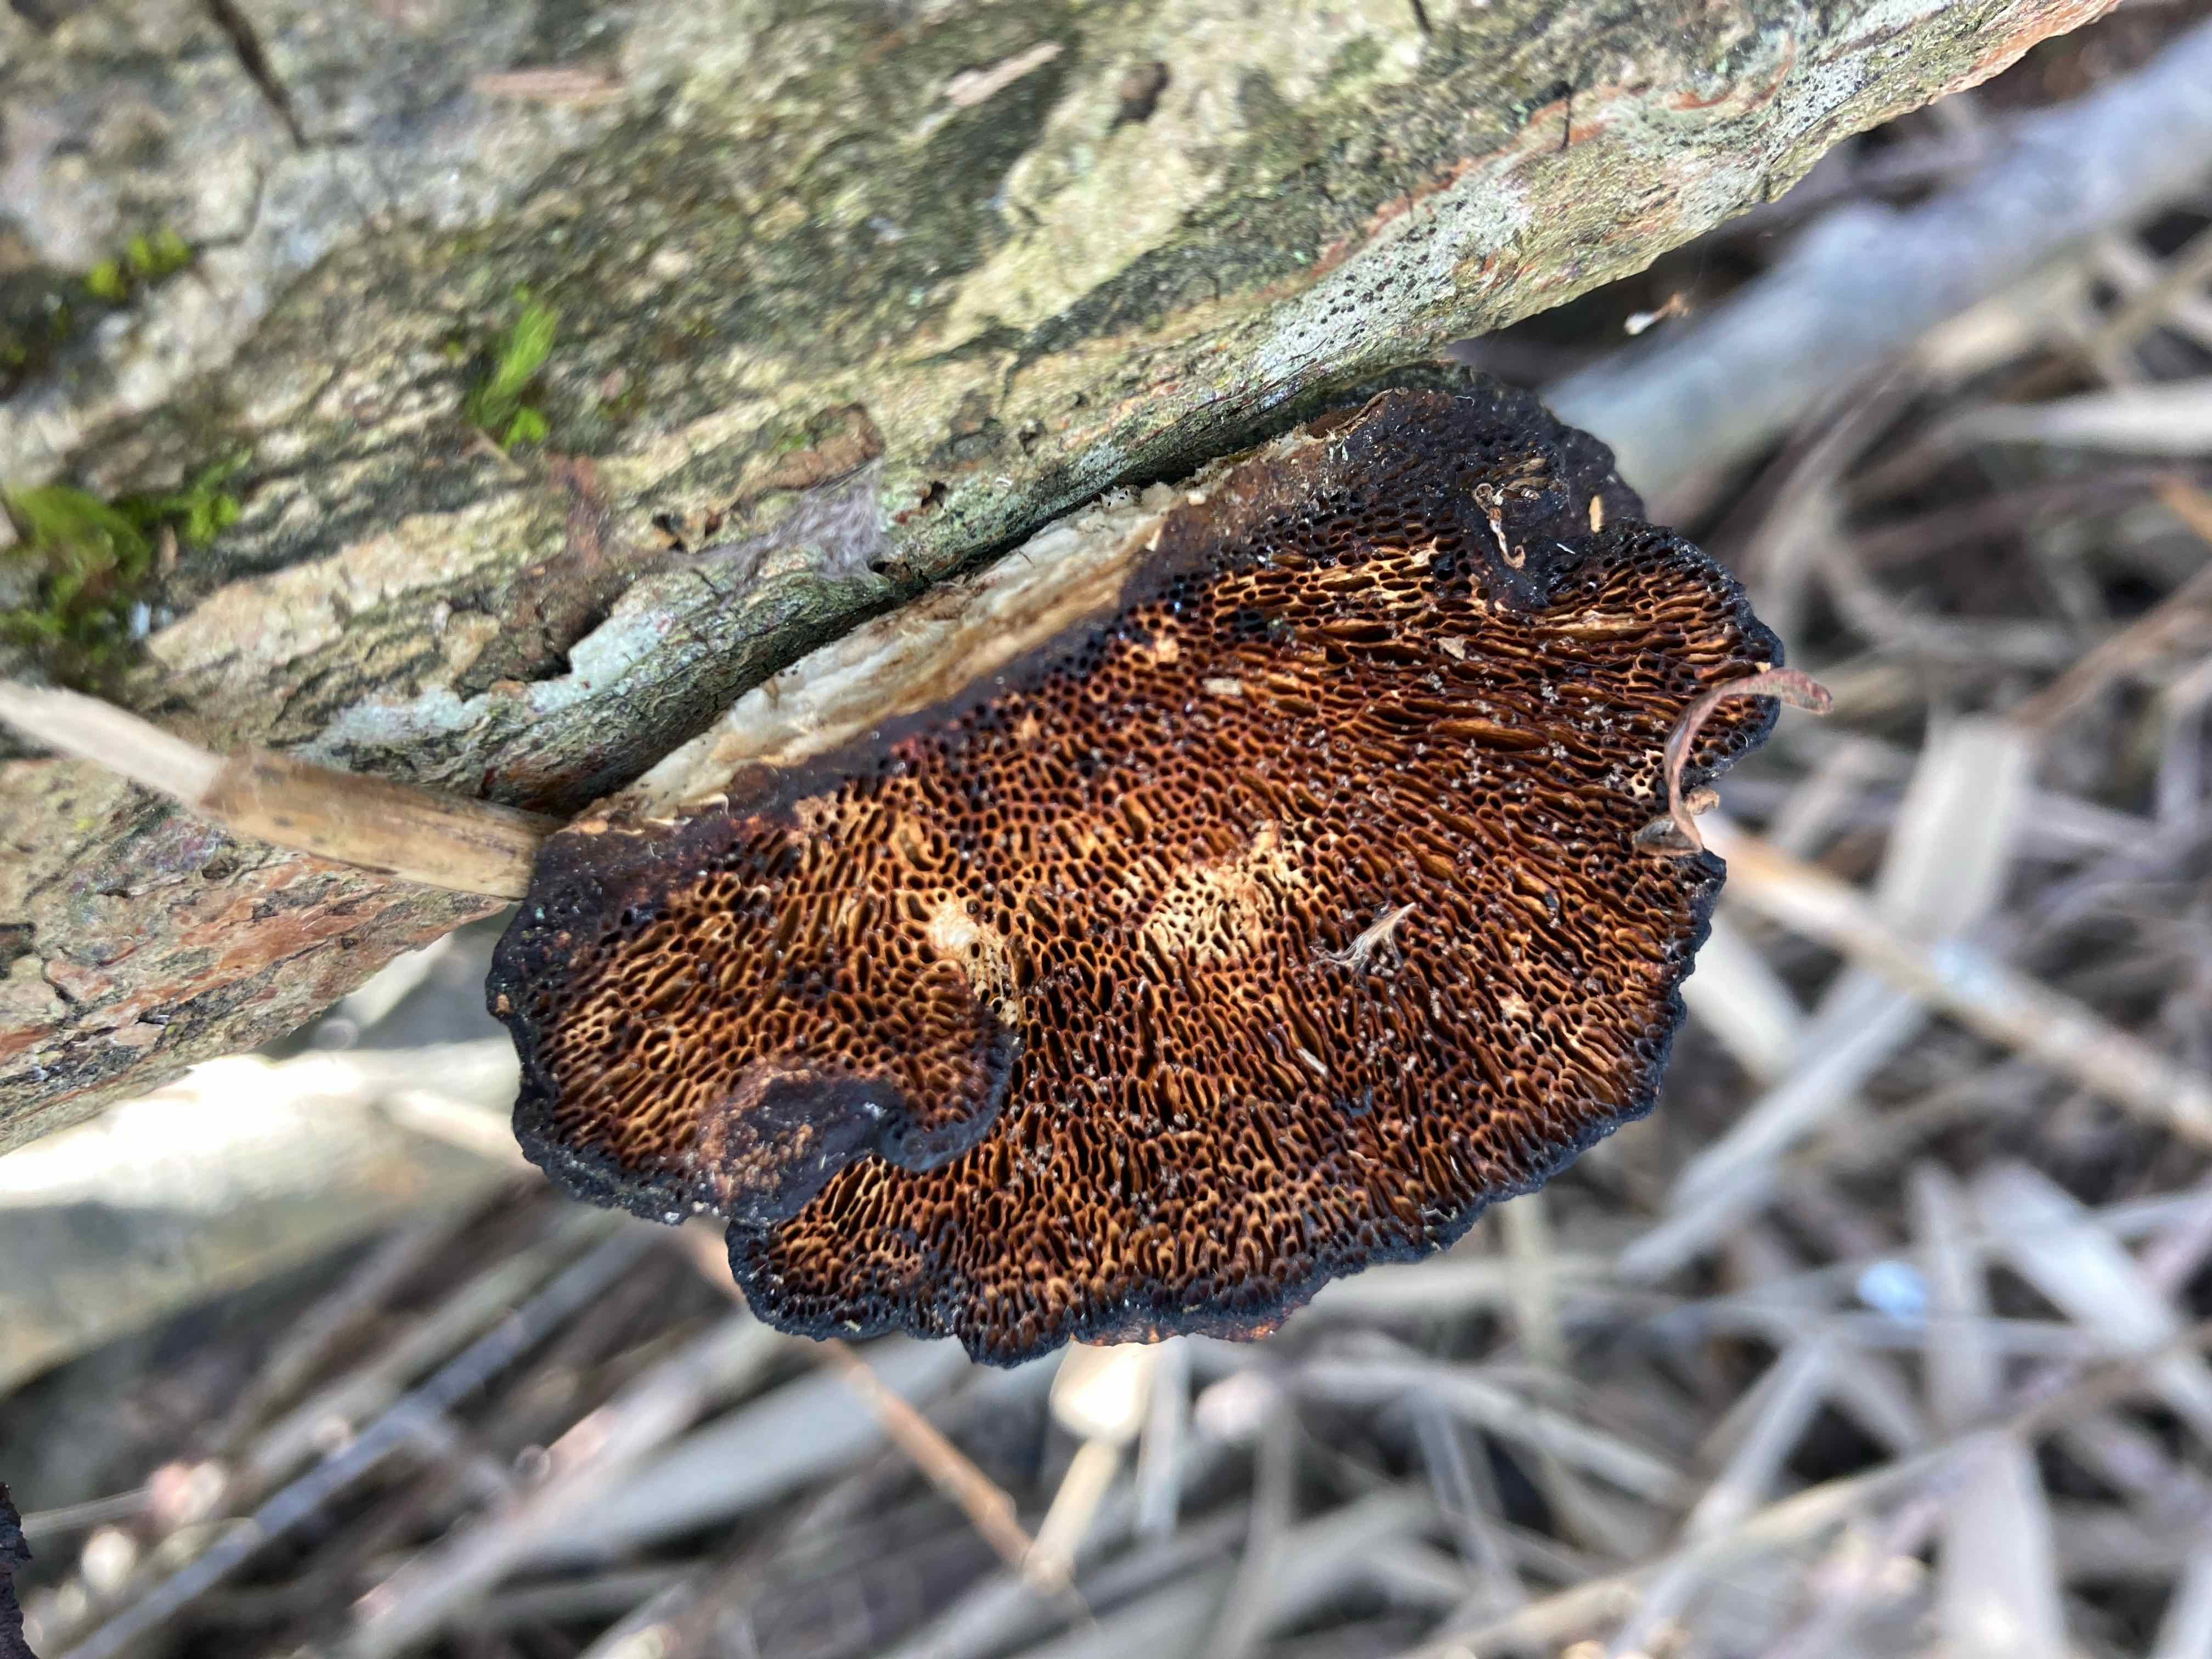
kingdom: Fungi
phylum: Basidiomycota
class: Agaricomycetes
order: Polyporales
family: Polyporaceae
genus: Daedaleopsis
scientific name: Daedaleopsis confragosa
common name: rødmende læderporesvamp
